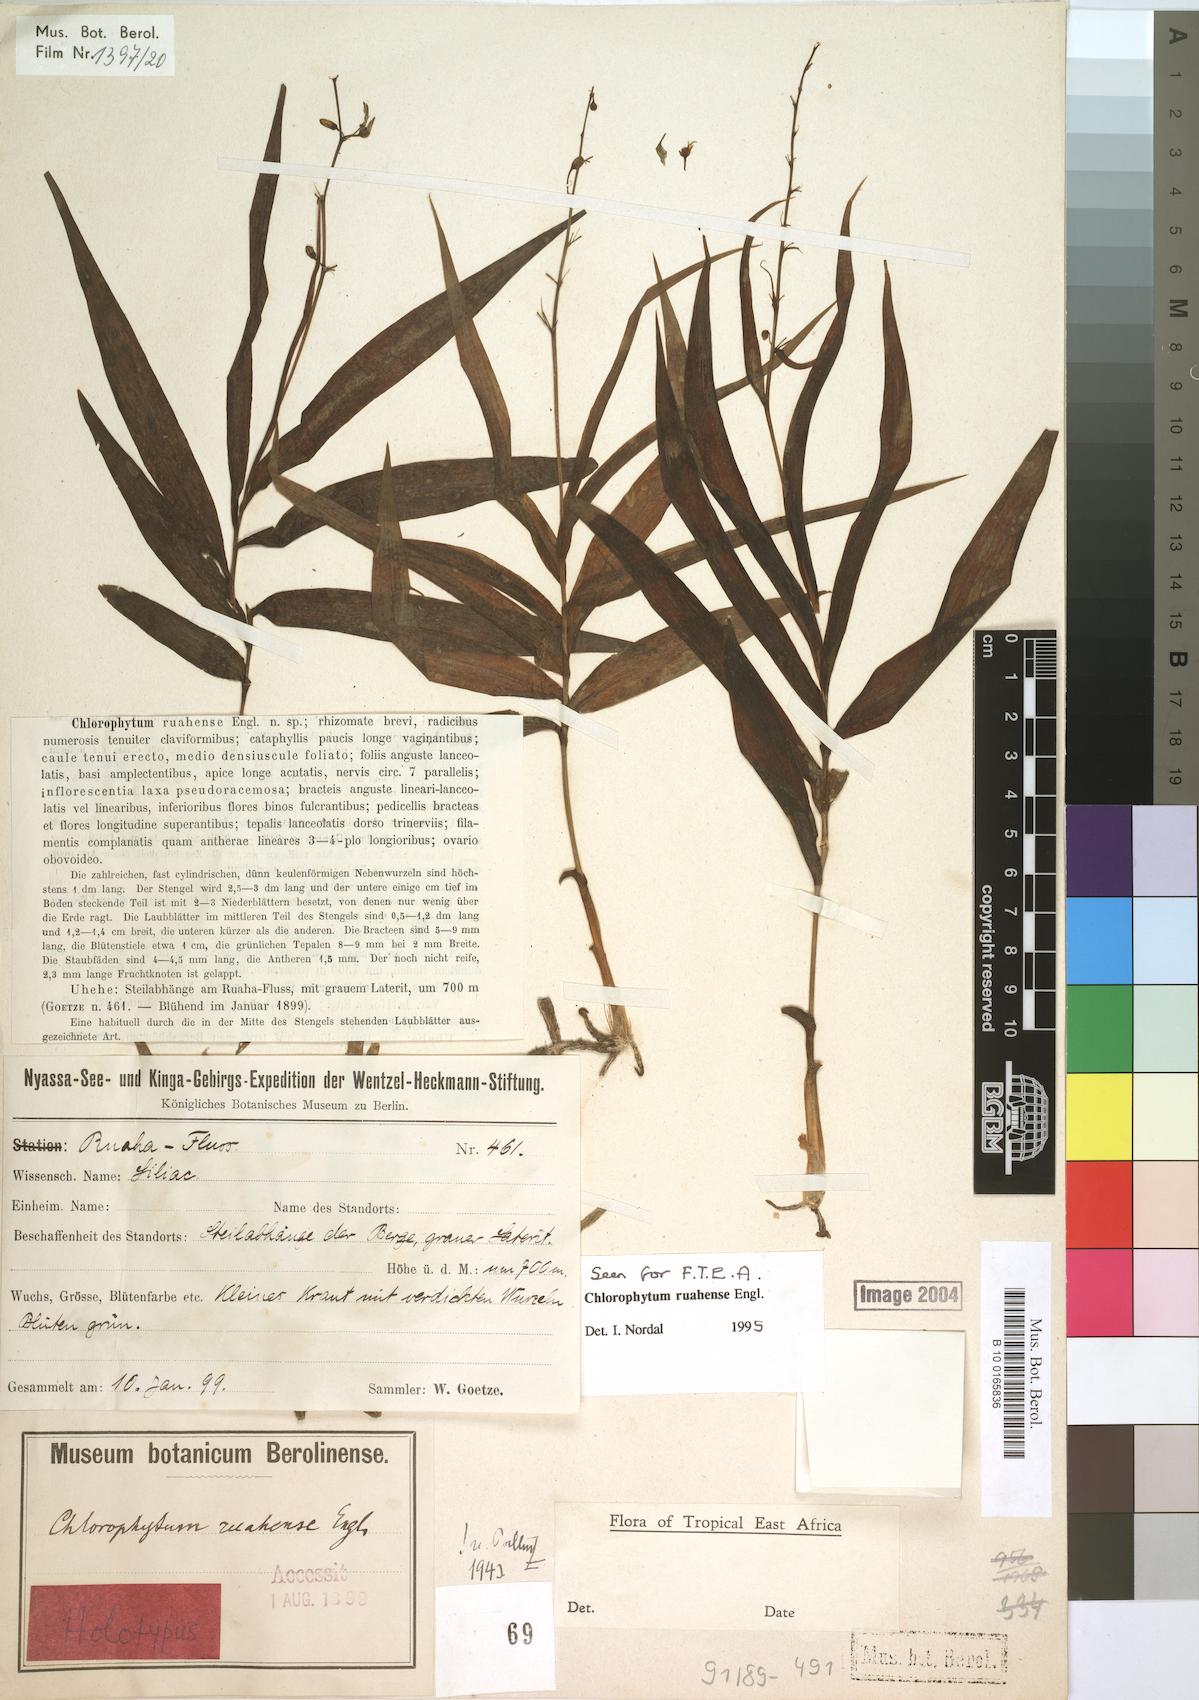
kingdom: Plantae
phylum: Tracheophyta
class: Liliopsida
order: Asparagales
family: Asparagaceae
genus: Chlorophytum
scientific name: Chlorophytum ruahense
